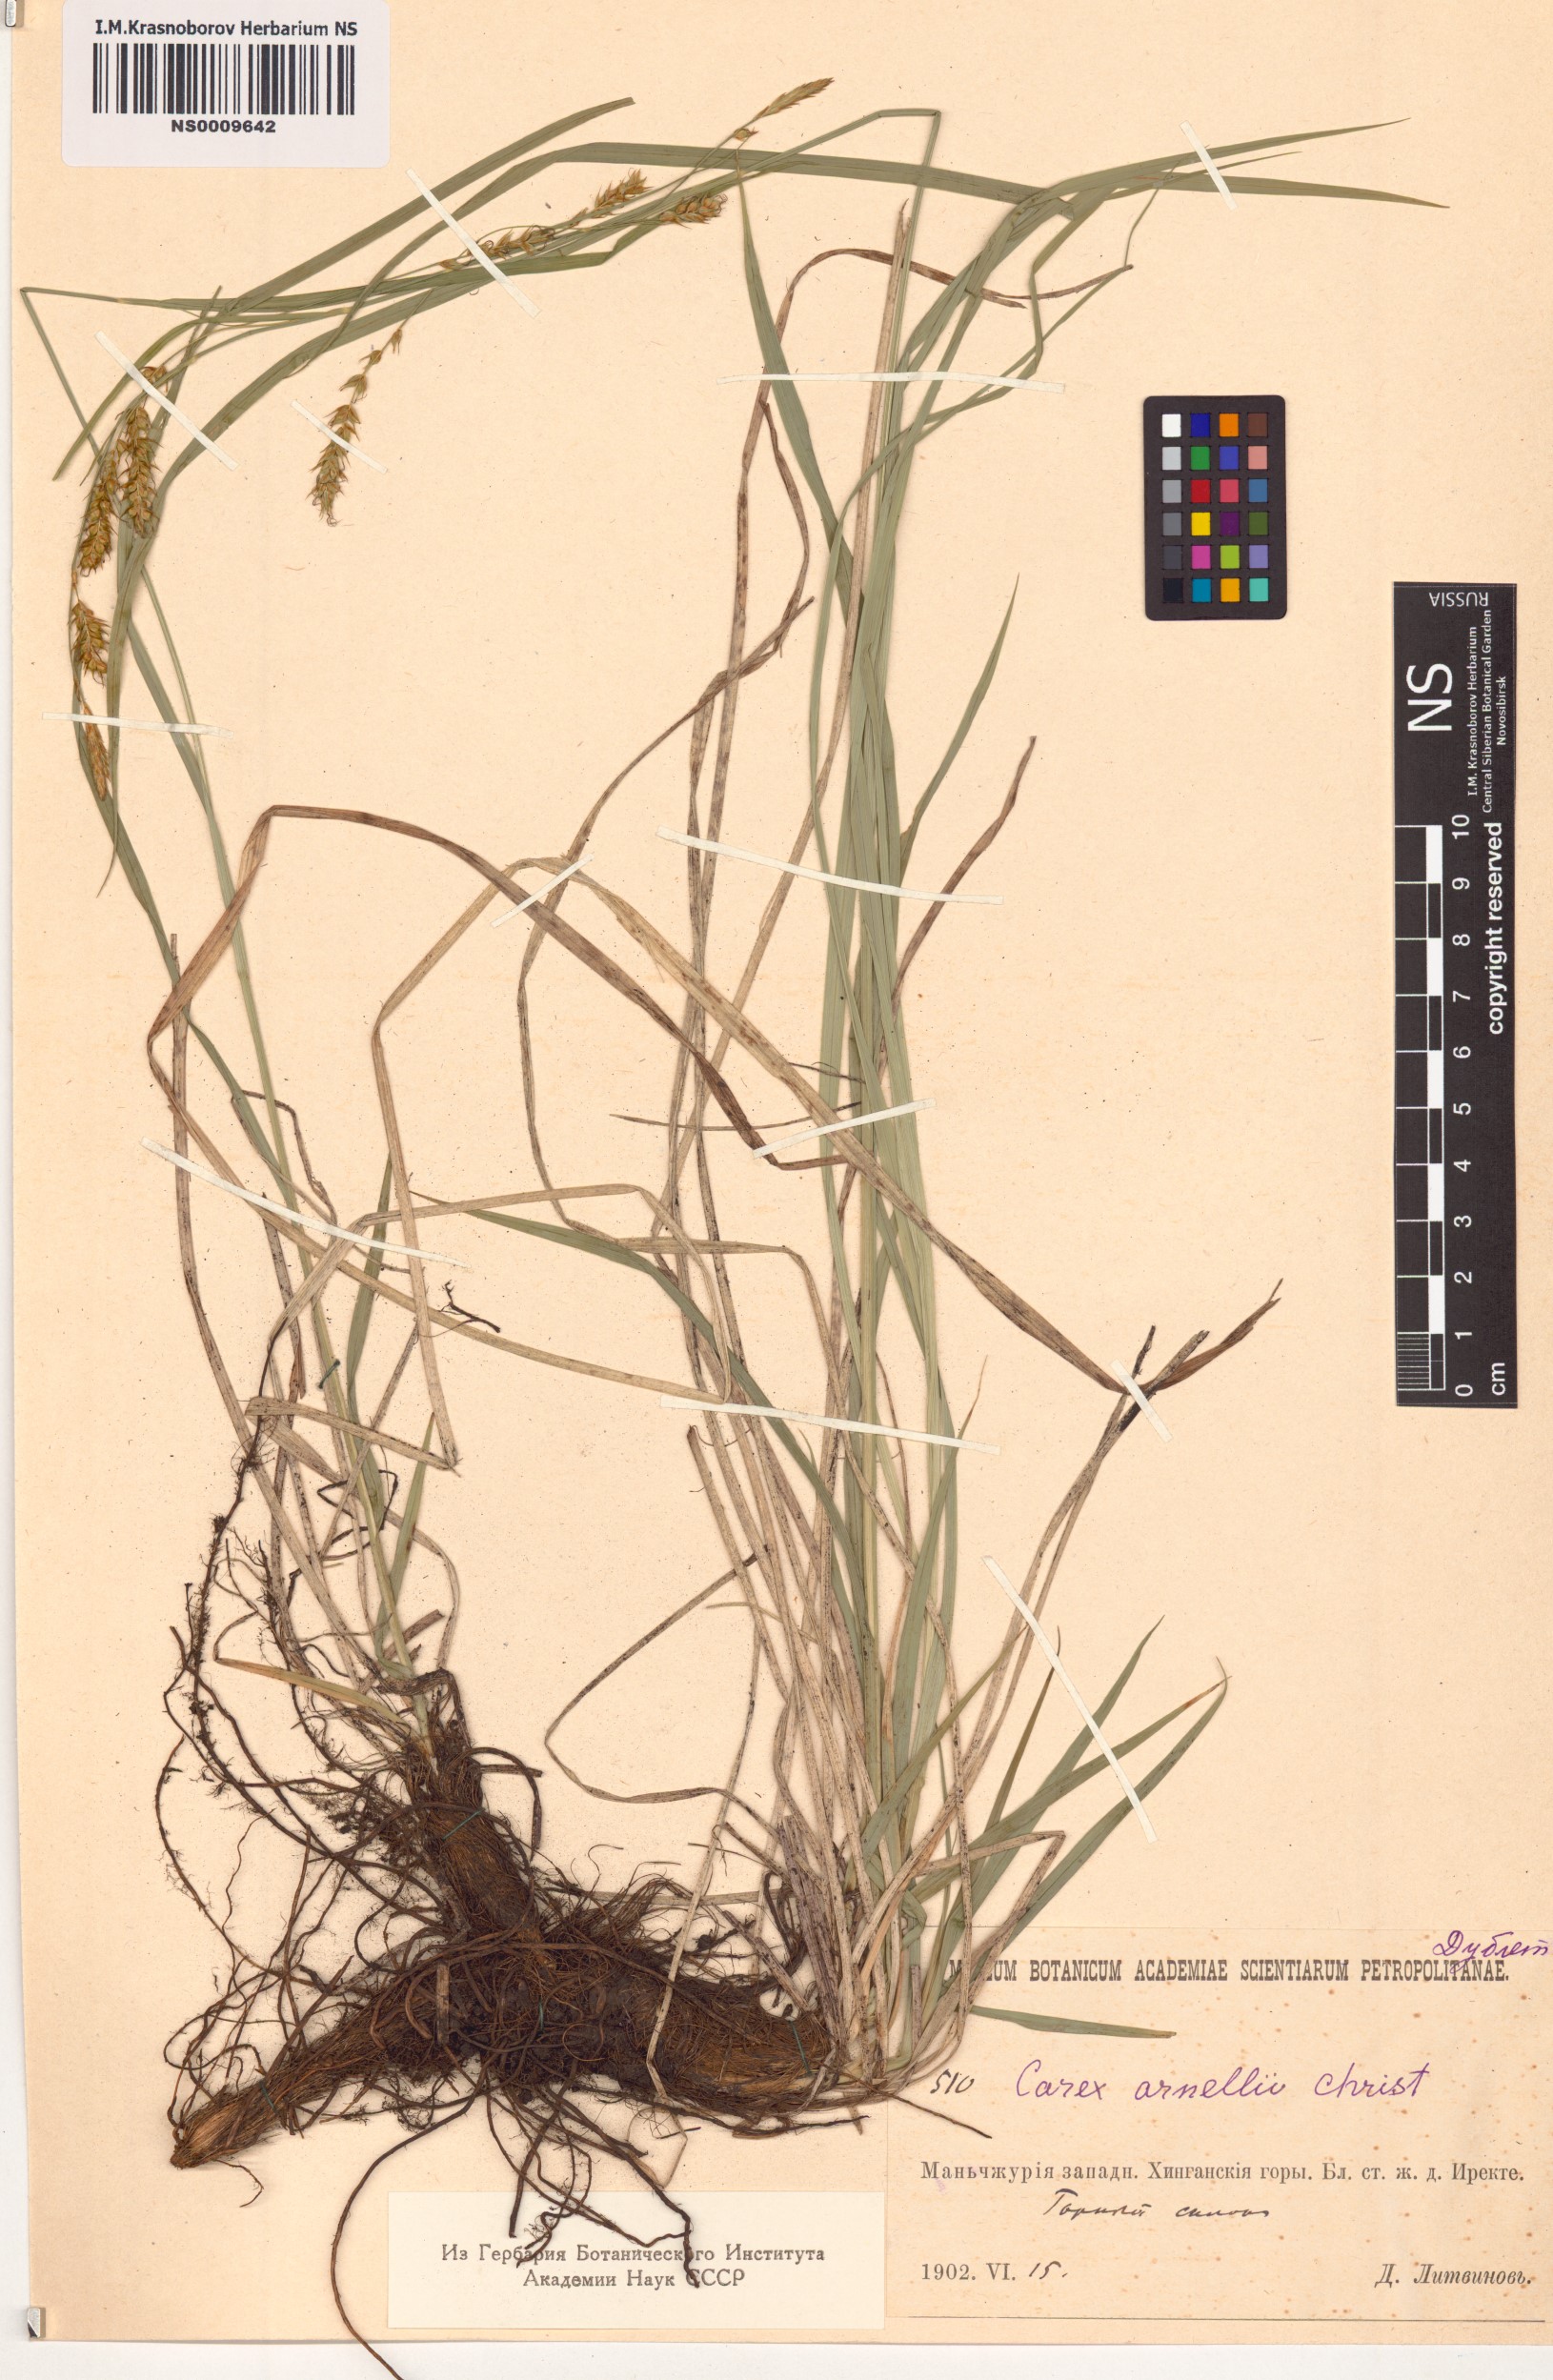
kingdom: Plantae
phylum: Tracheophyta
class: Liliopsida
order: Poales
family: Cyperaceae
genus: Carex
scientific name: Carex arnellii
